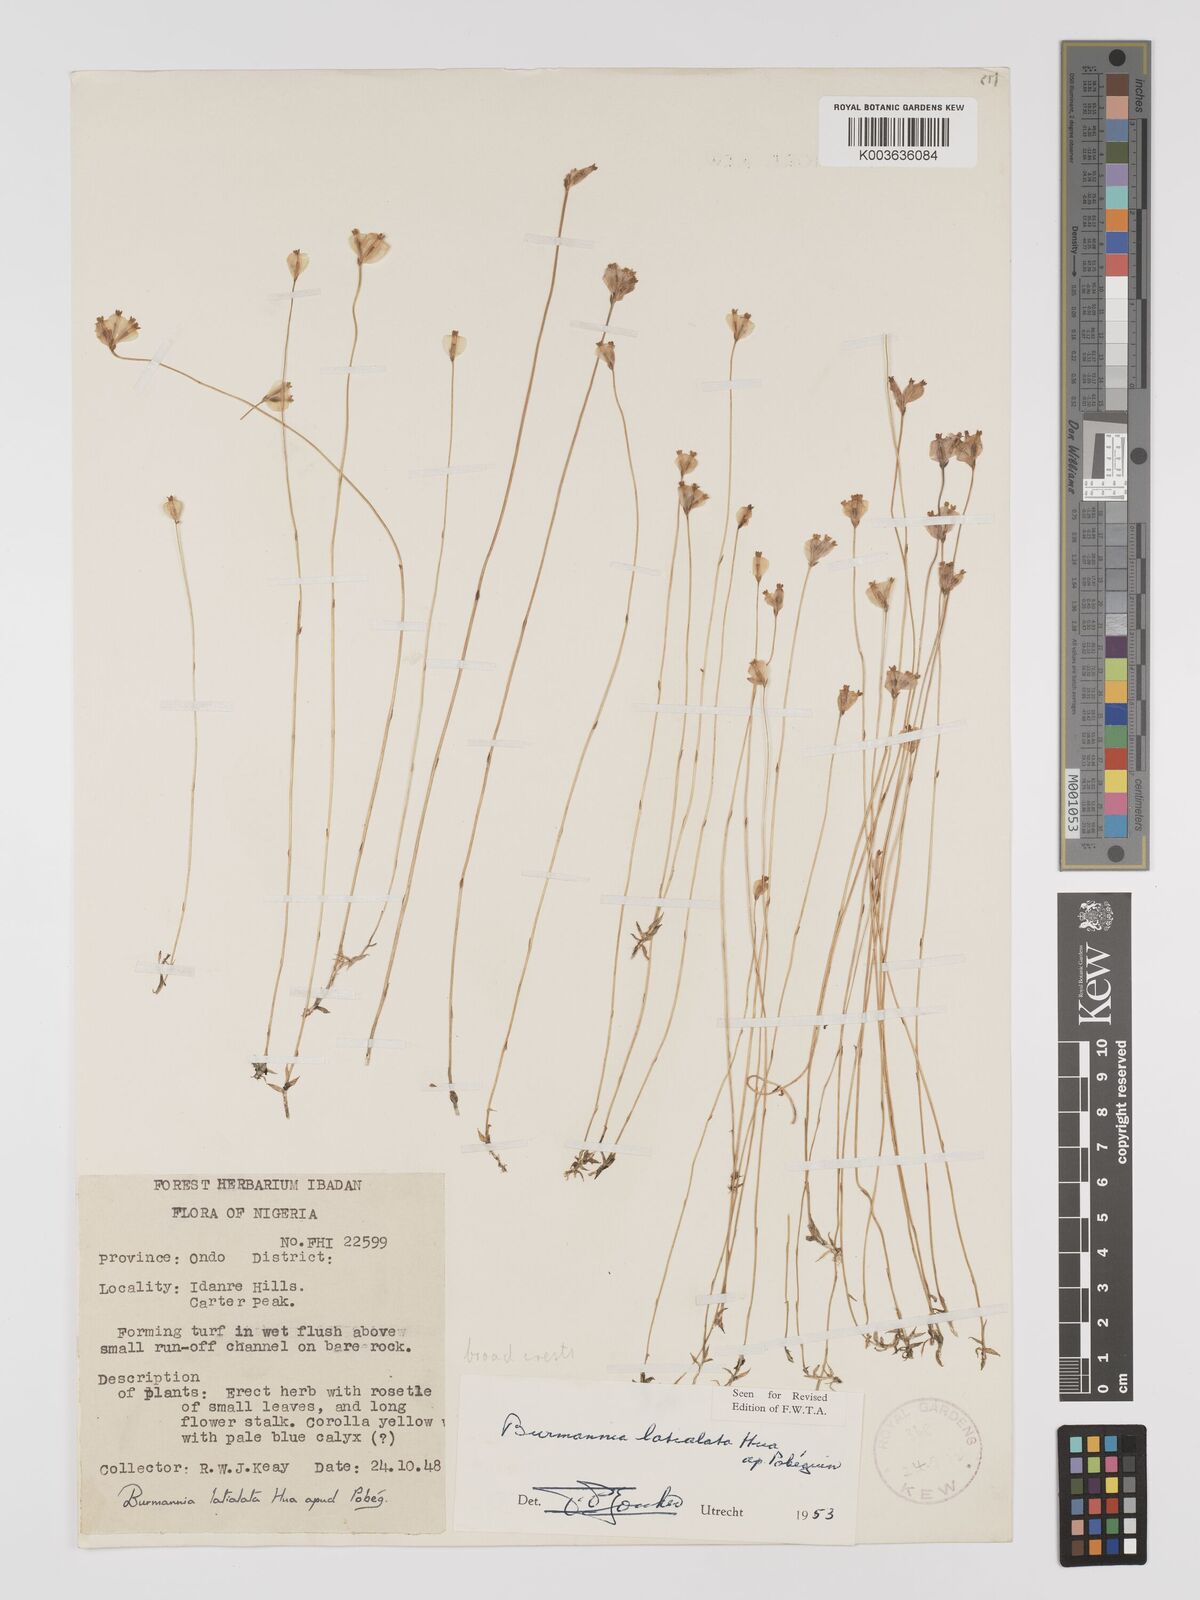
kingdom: Plantae
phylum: Tracheophyta
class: Liliopsida
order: Dioscoreales
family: Burmanniaceae
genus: Burmannia
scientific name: Burmannia madagascariensis
